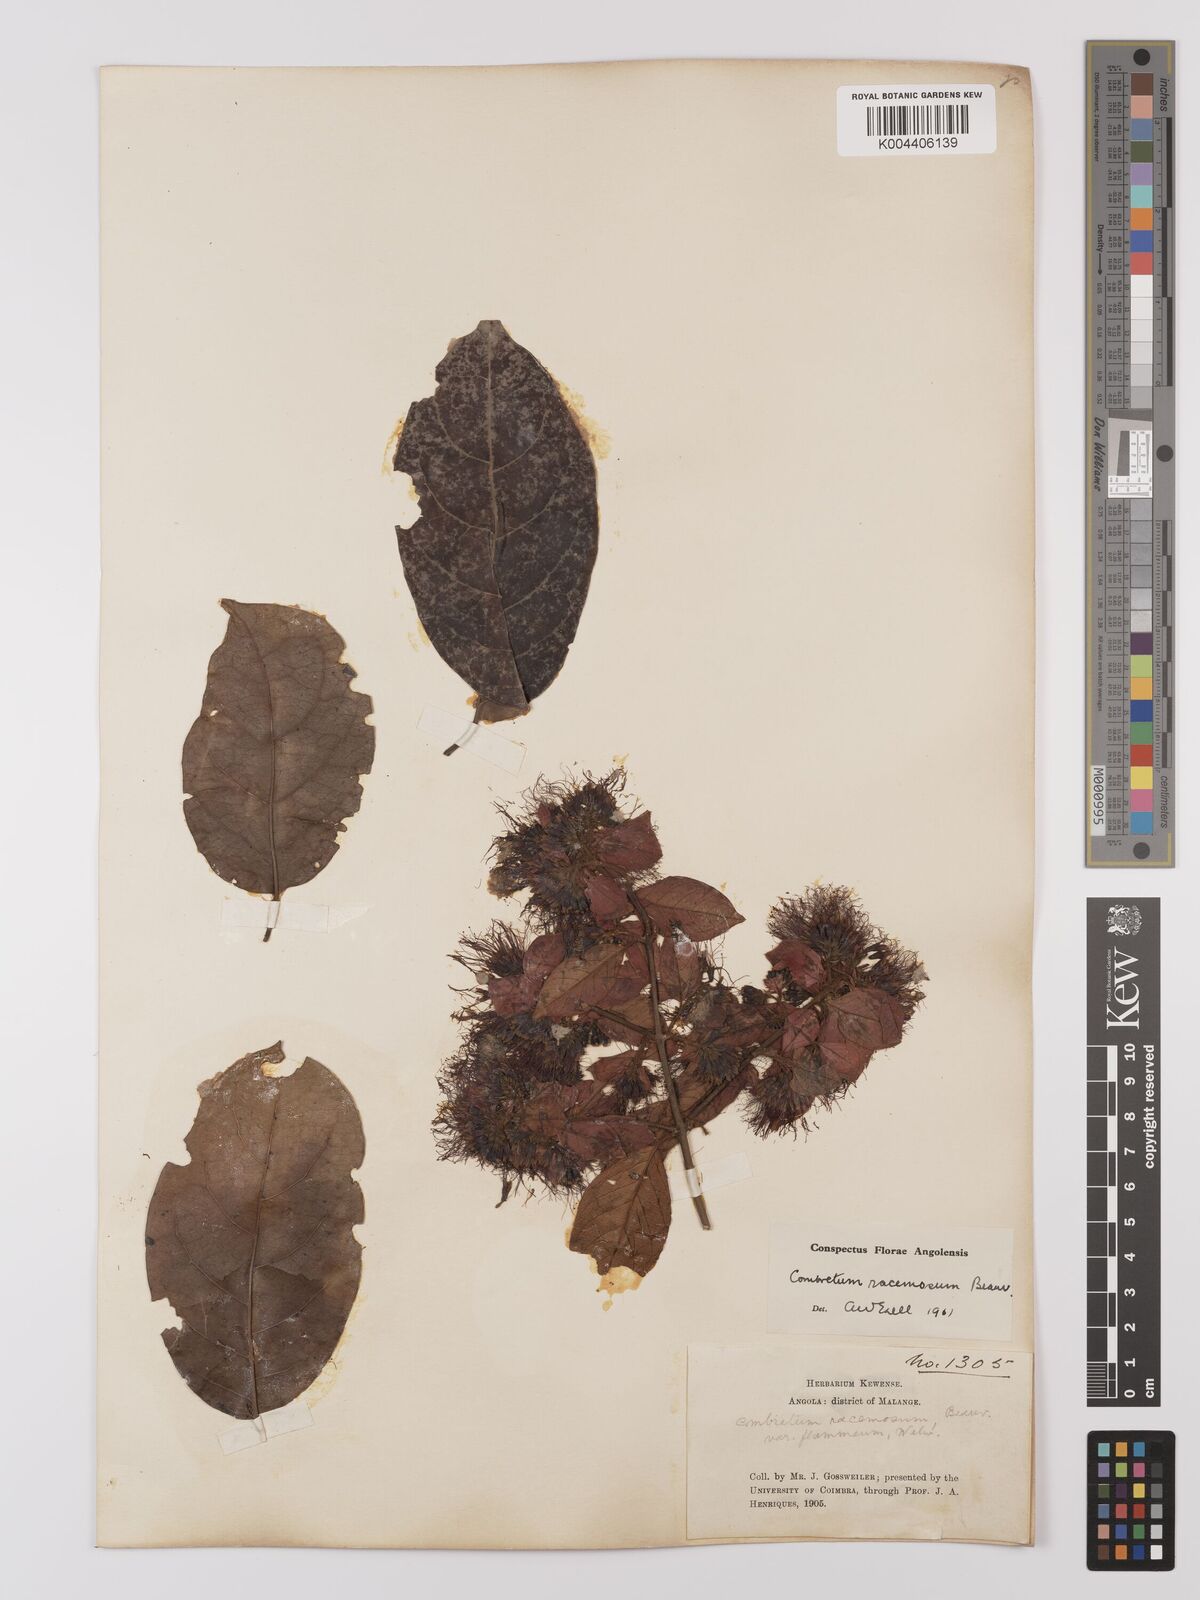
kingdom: Plantae
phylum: Tracheophyta
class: Magnoliopsida
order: Myrtales
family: Combretaceae
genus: Combretum
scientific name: Combretum racemosum
